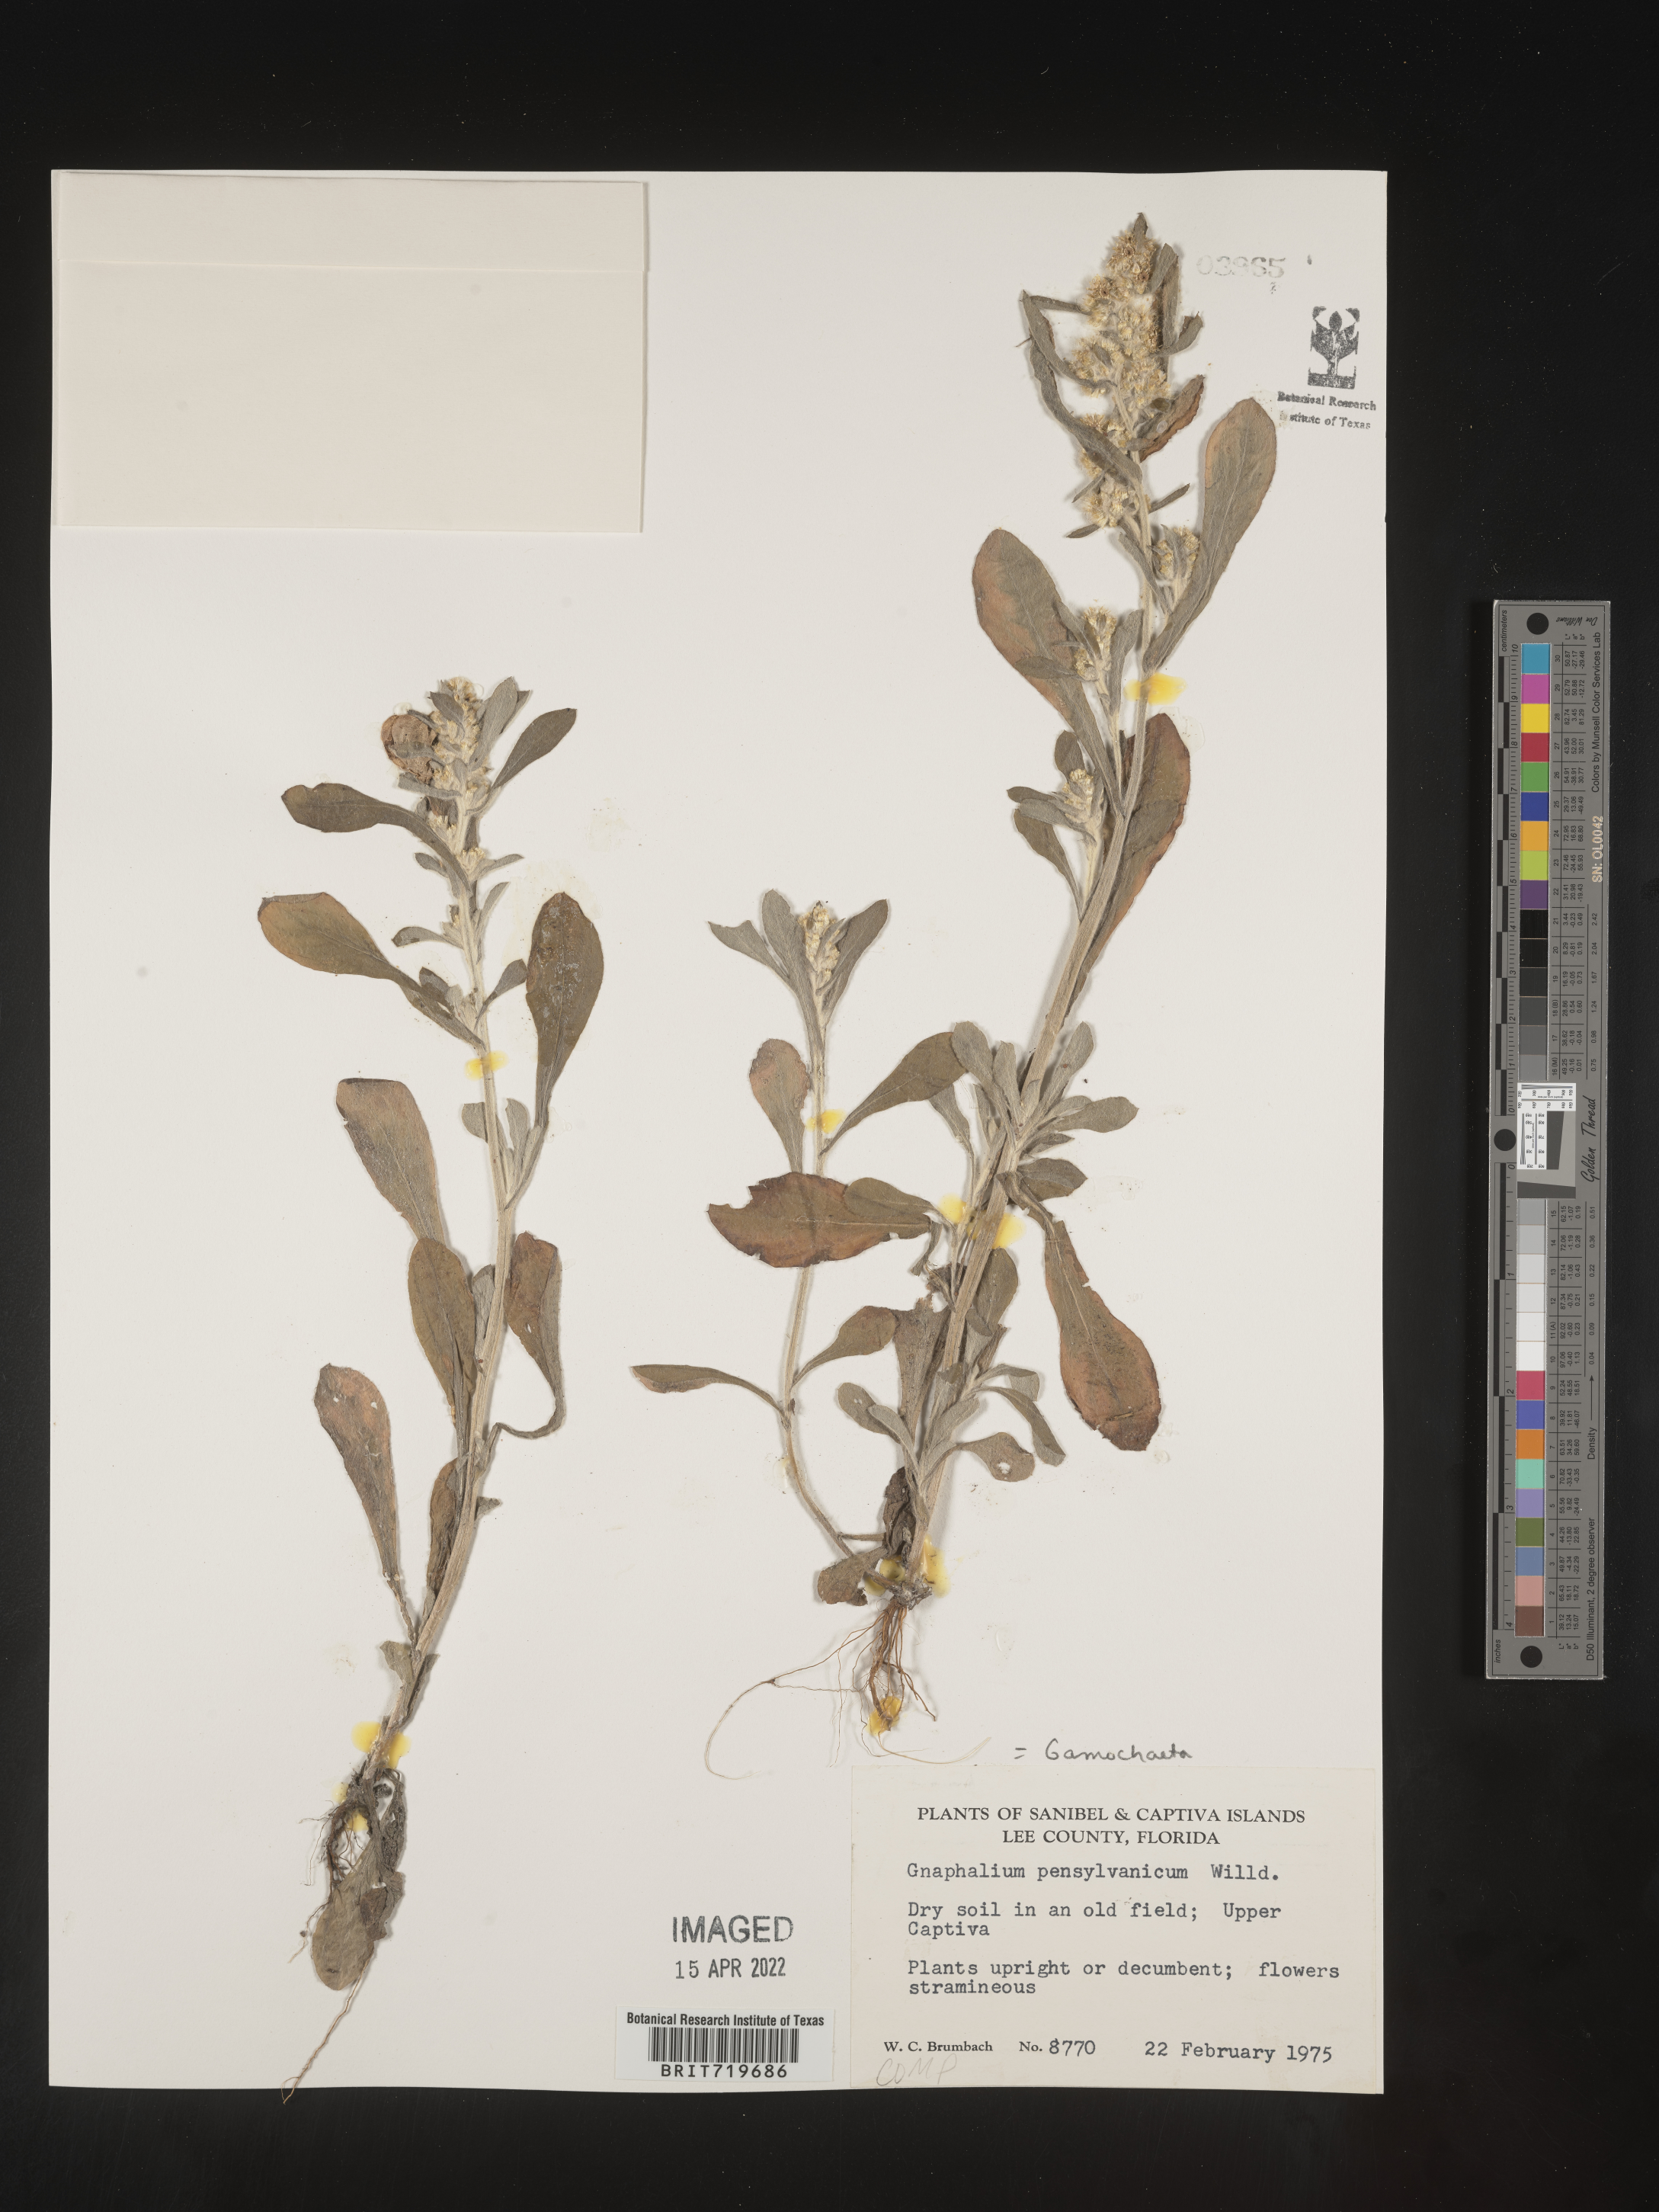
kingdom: Plantae
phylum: Tracheophyta
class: Magnoliopsida
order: Asterales
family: Asteraceae
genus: Gamochaeta
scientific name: Gamochaeta pensylvanica
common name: Pennsylvania everlasting
